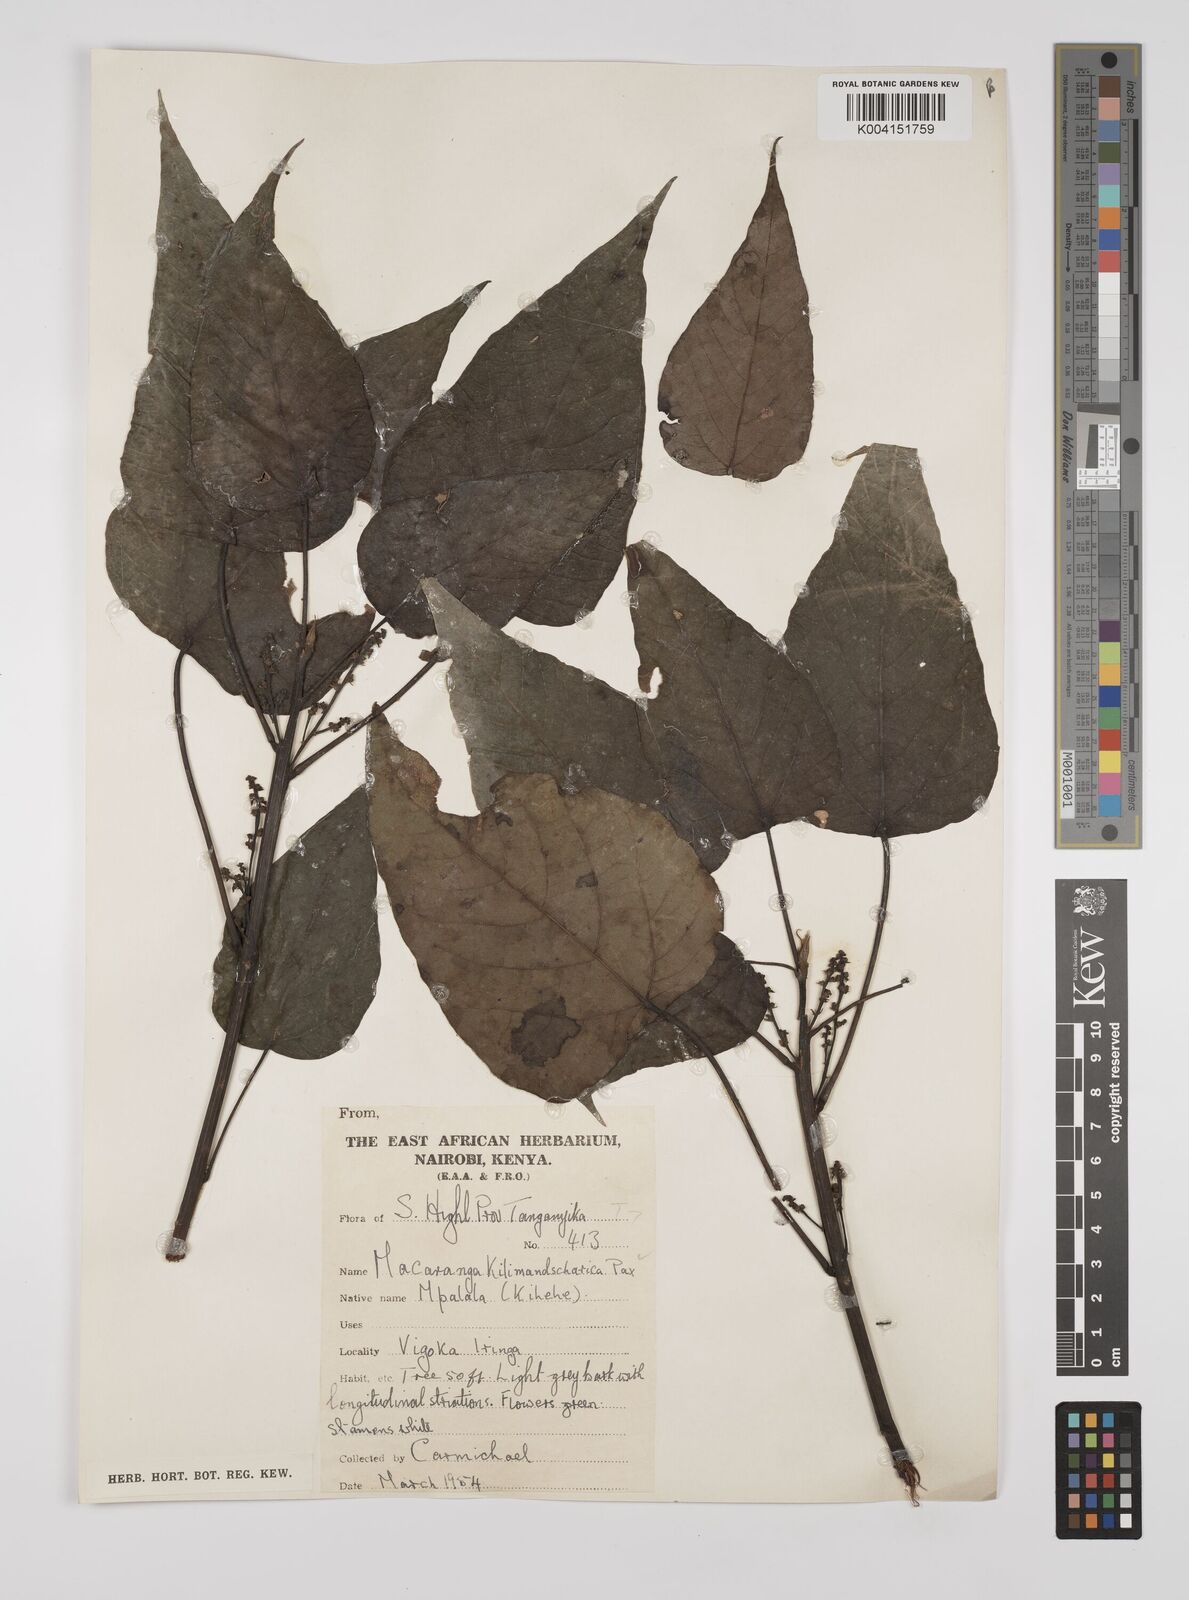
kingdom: Plantae
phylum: Tracheophyta
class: Magnoliopsida
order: Malpighiales
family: Euphorbiaceae
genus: Macaranga
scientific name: Macaranga kilimandscharica
